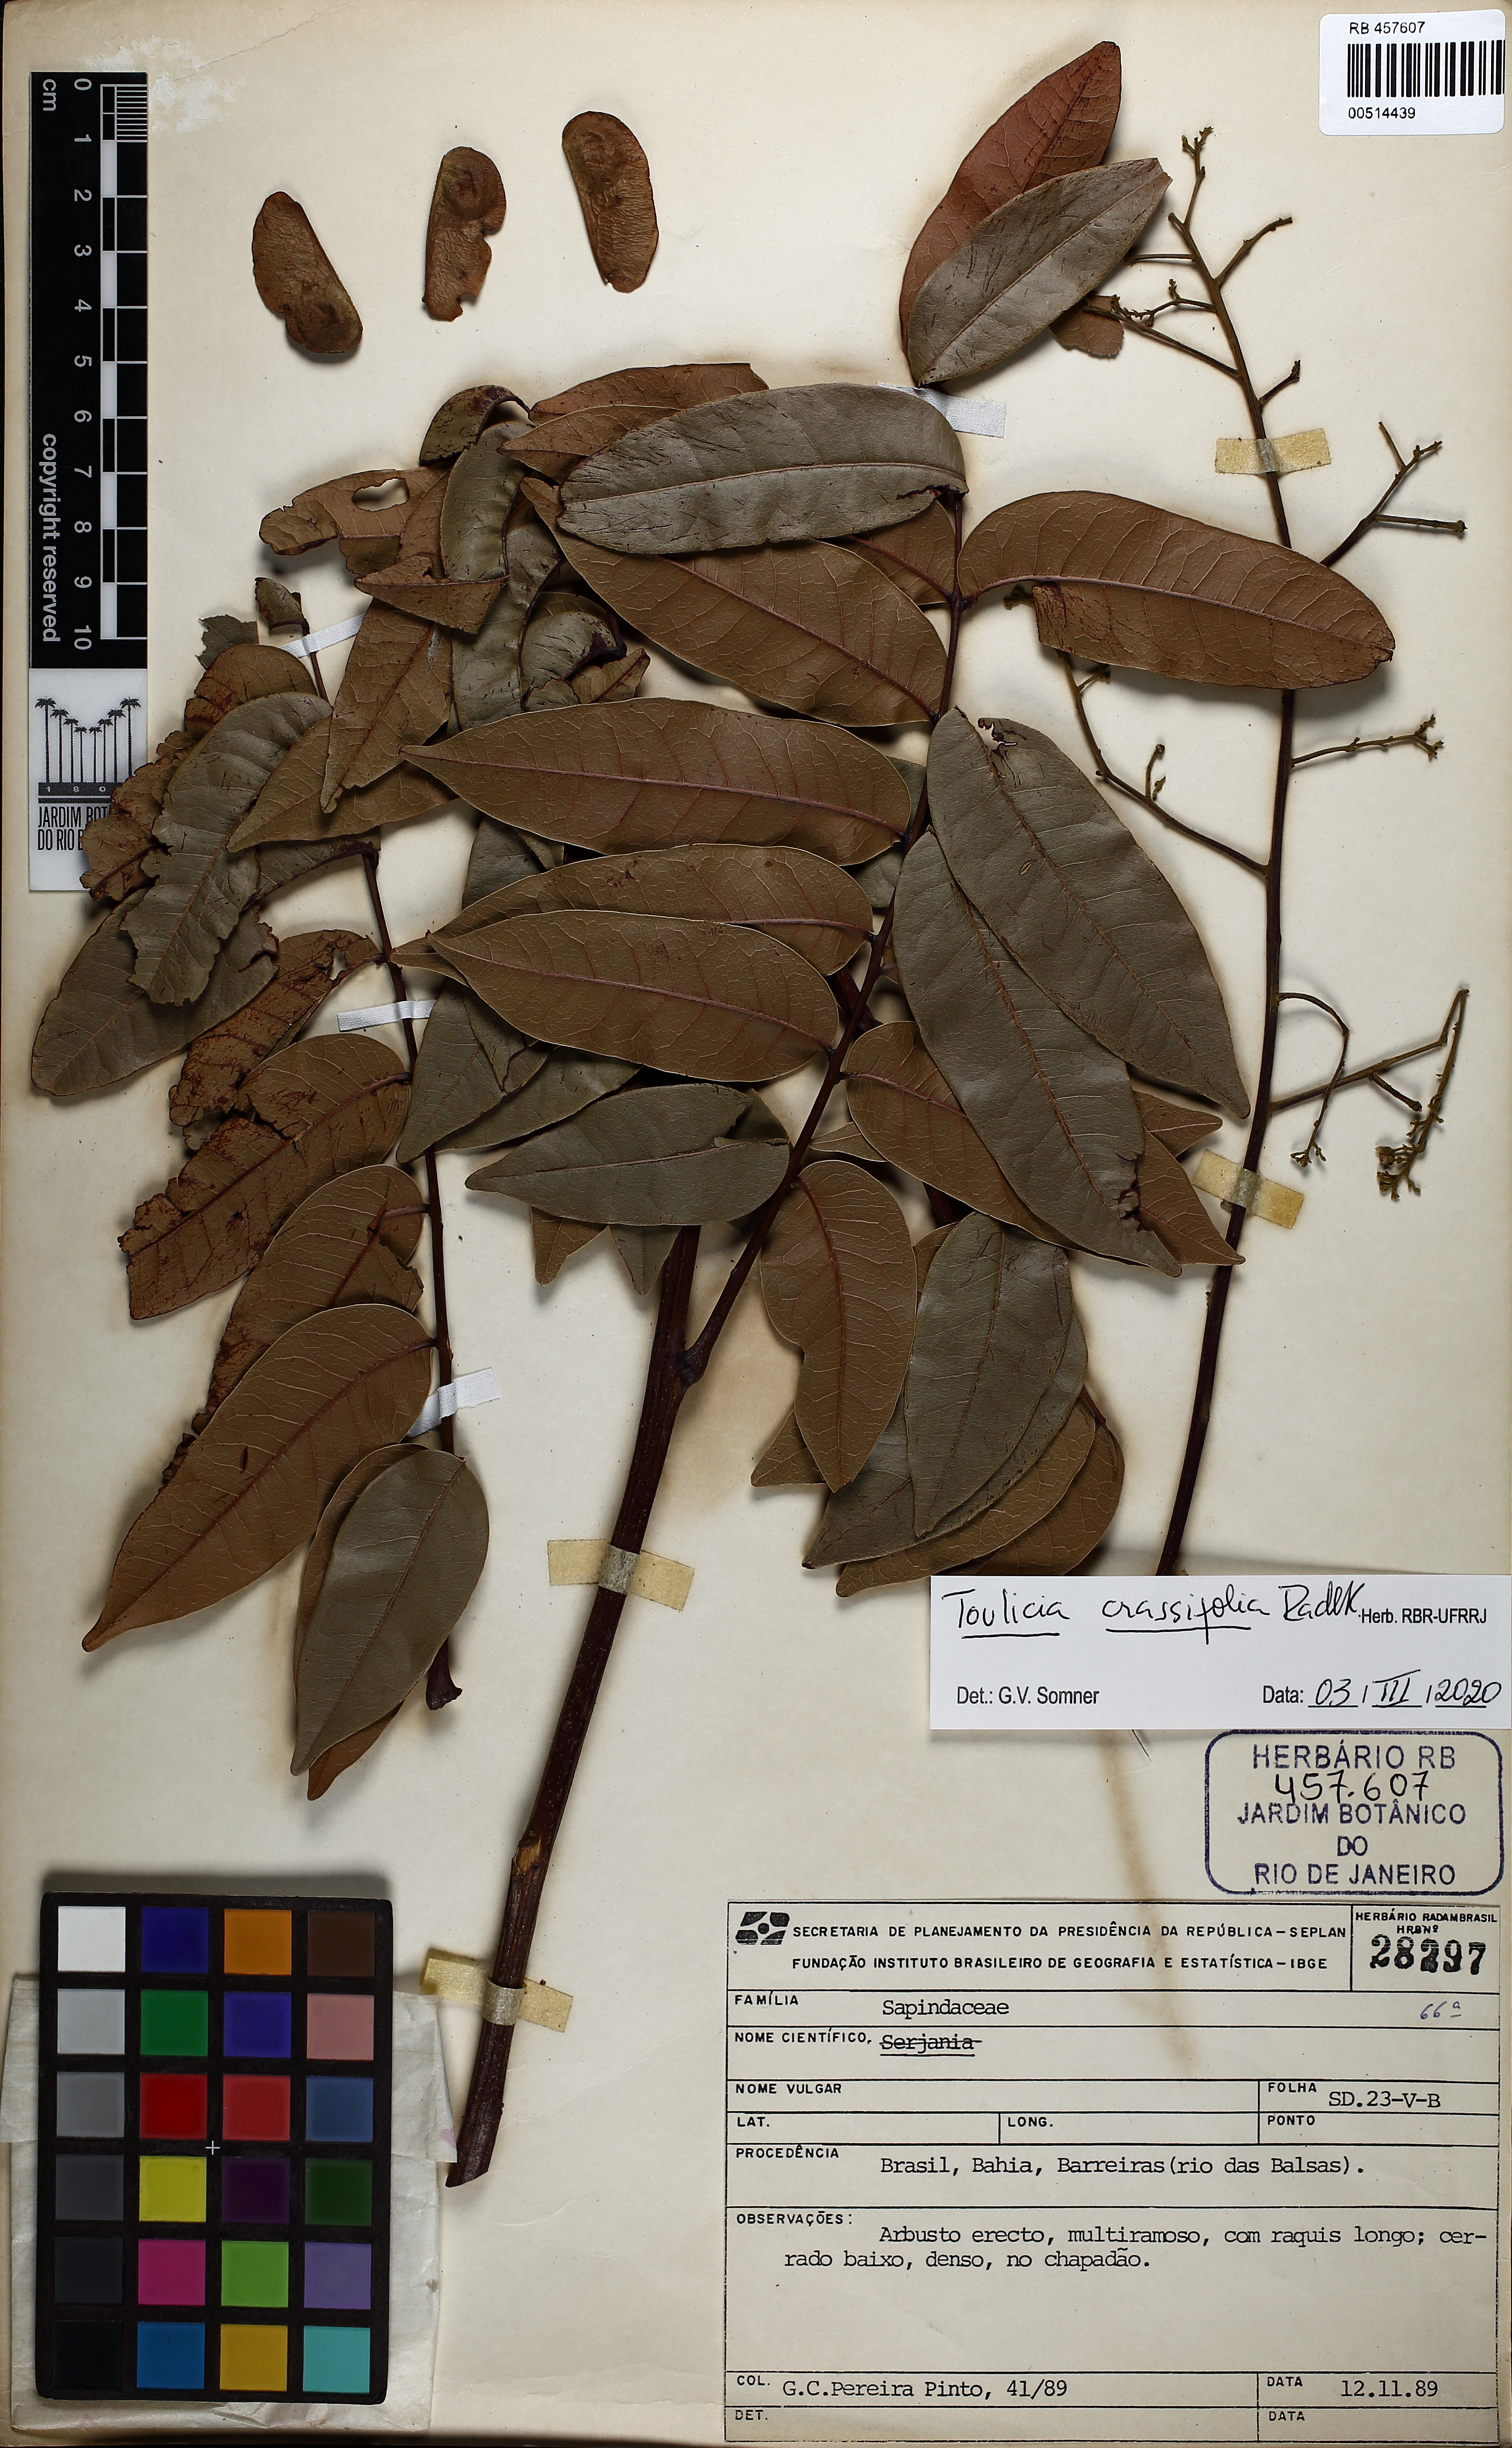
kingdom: Plantae
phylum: Tracheophyta
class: Magnoliopsida
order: Sapindales
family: Sapindaceae
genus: Toulicia
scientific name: Toulicia crassifolia
